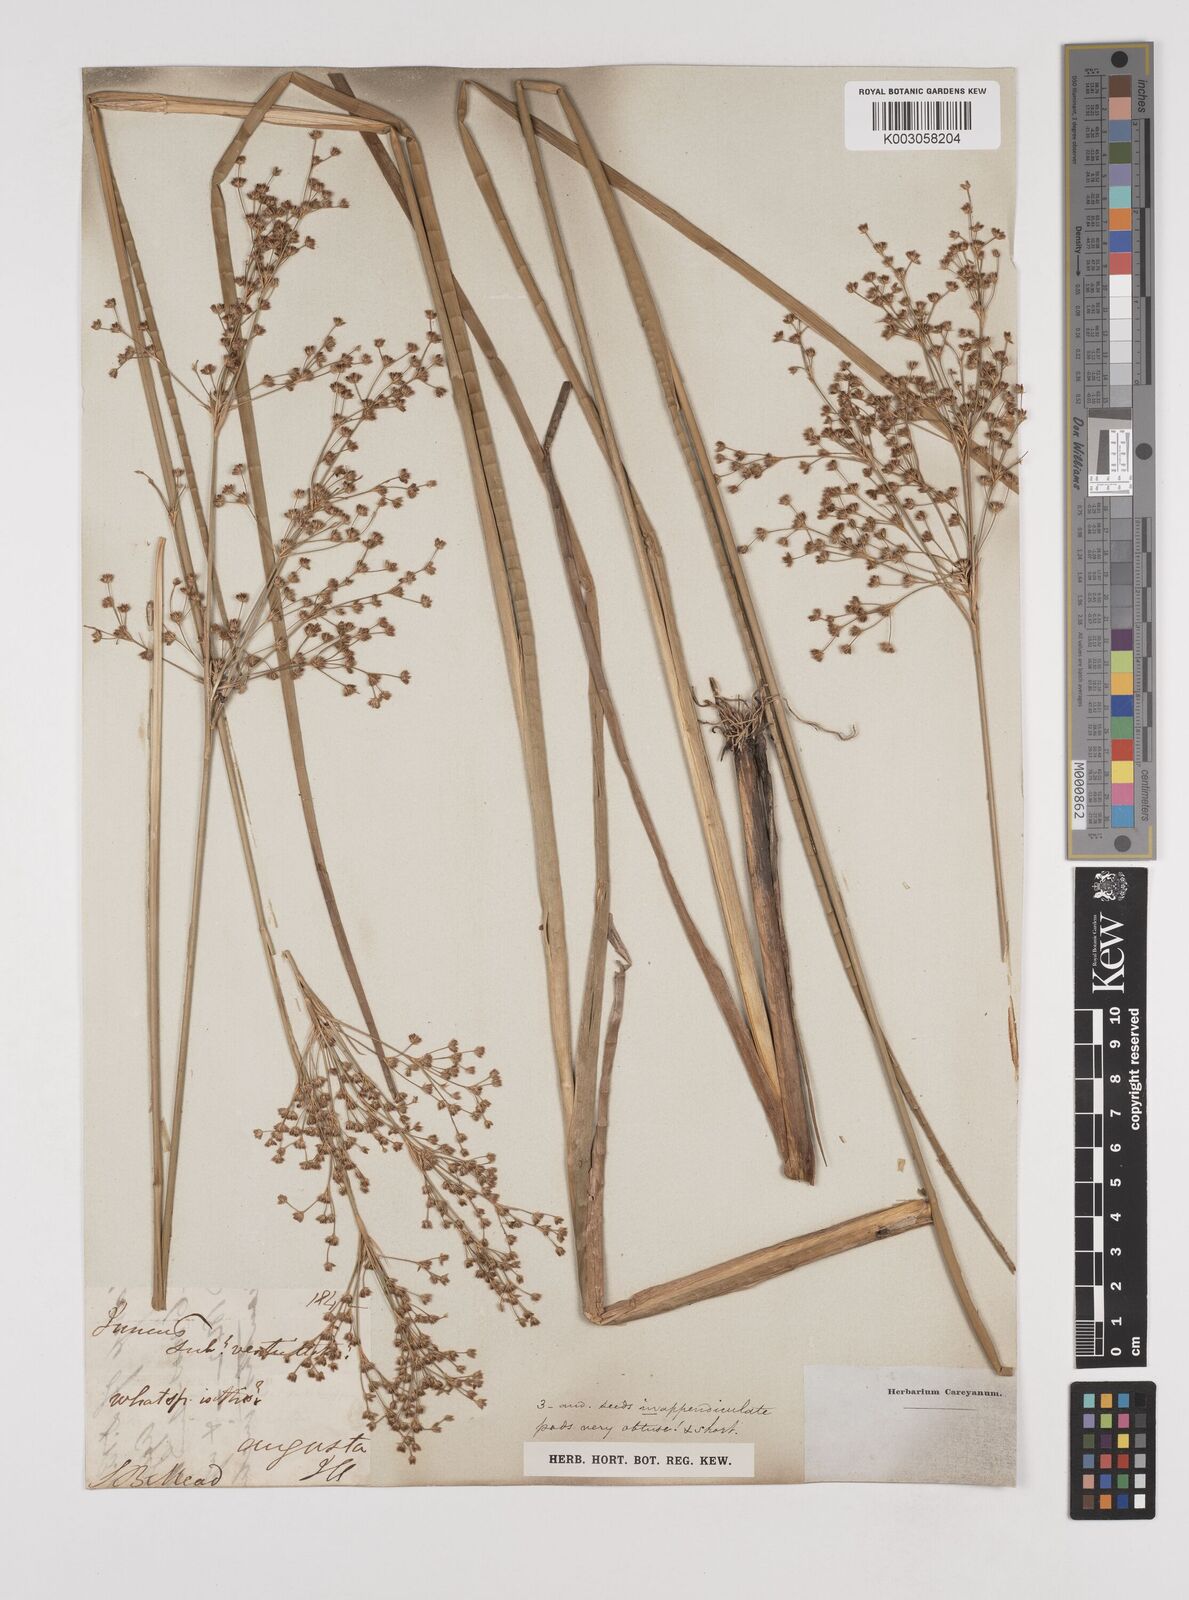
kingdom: Plantae
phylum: Tracheophyta
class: Liliopsida
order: Poales
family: Juncaceae
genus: Juncus
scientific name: Juncus
